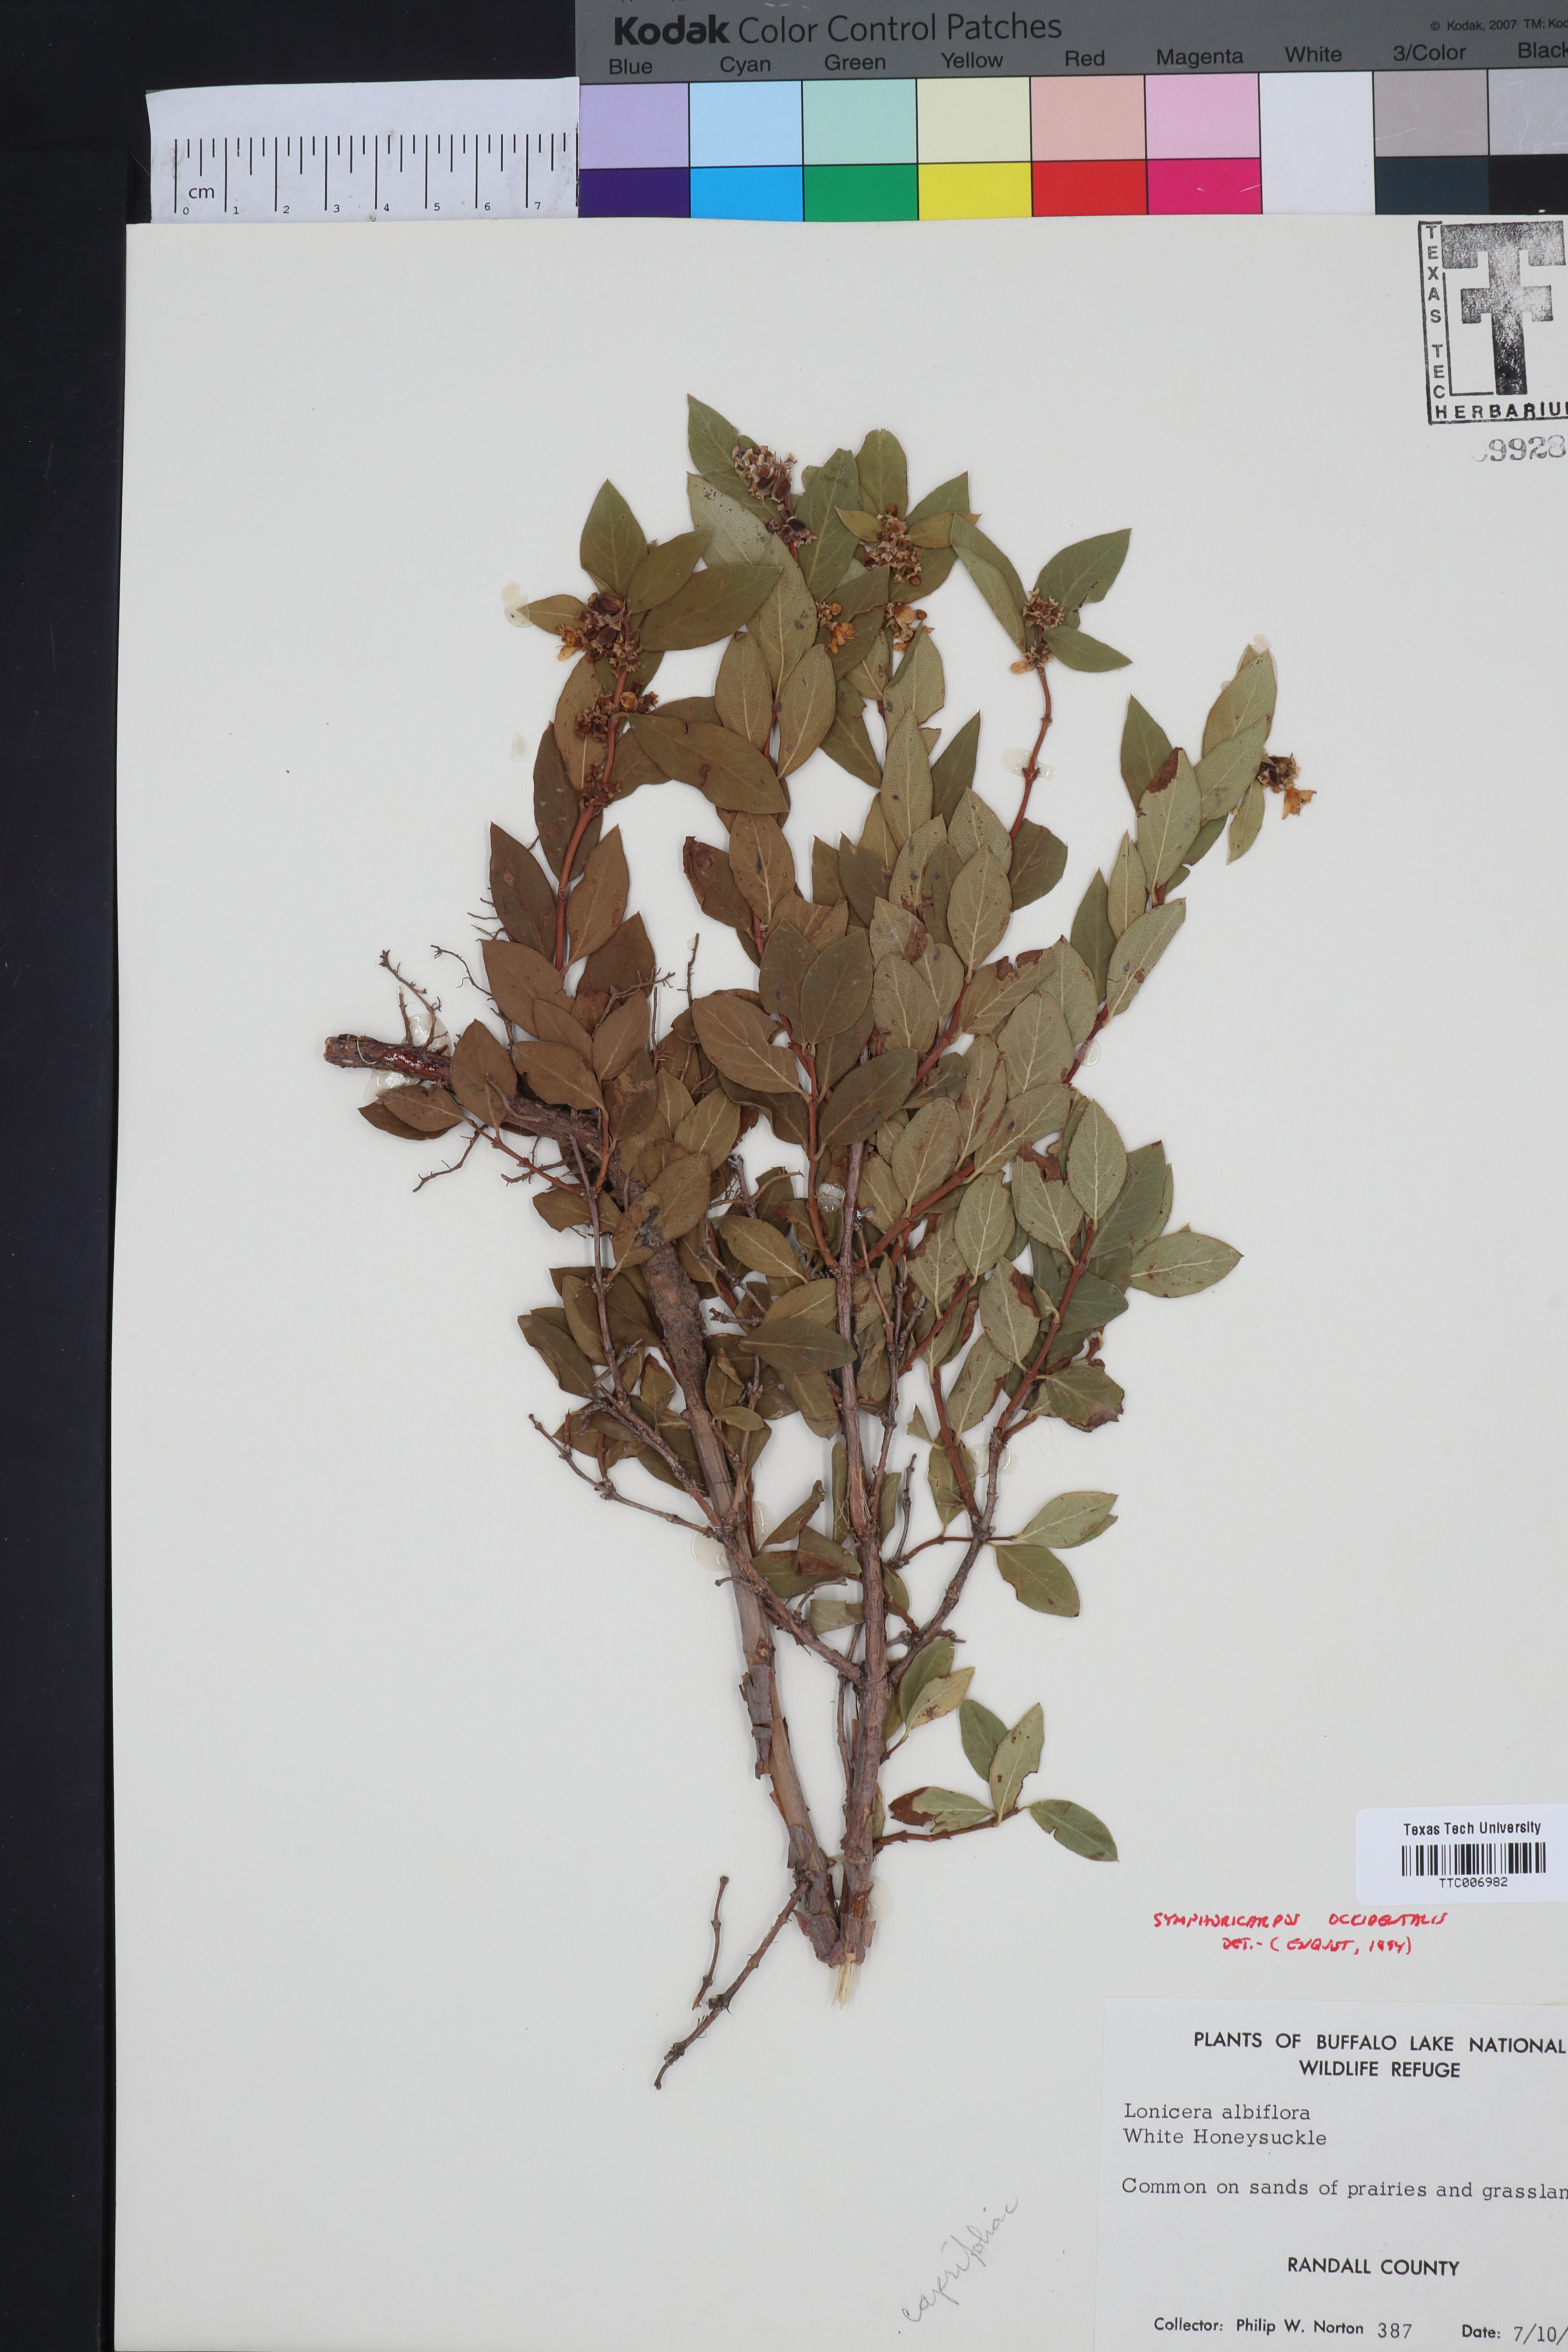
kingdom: Plantae
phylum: Tracheophyta
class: Magnoliopsida
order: Dipsacales
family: Caprifoliaceae
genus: Symphoricarpos
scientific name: Symphoricarpos occidentalis
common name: Wolfberry
